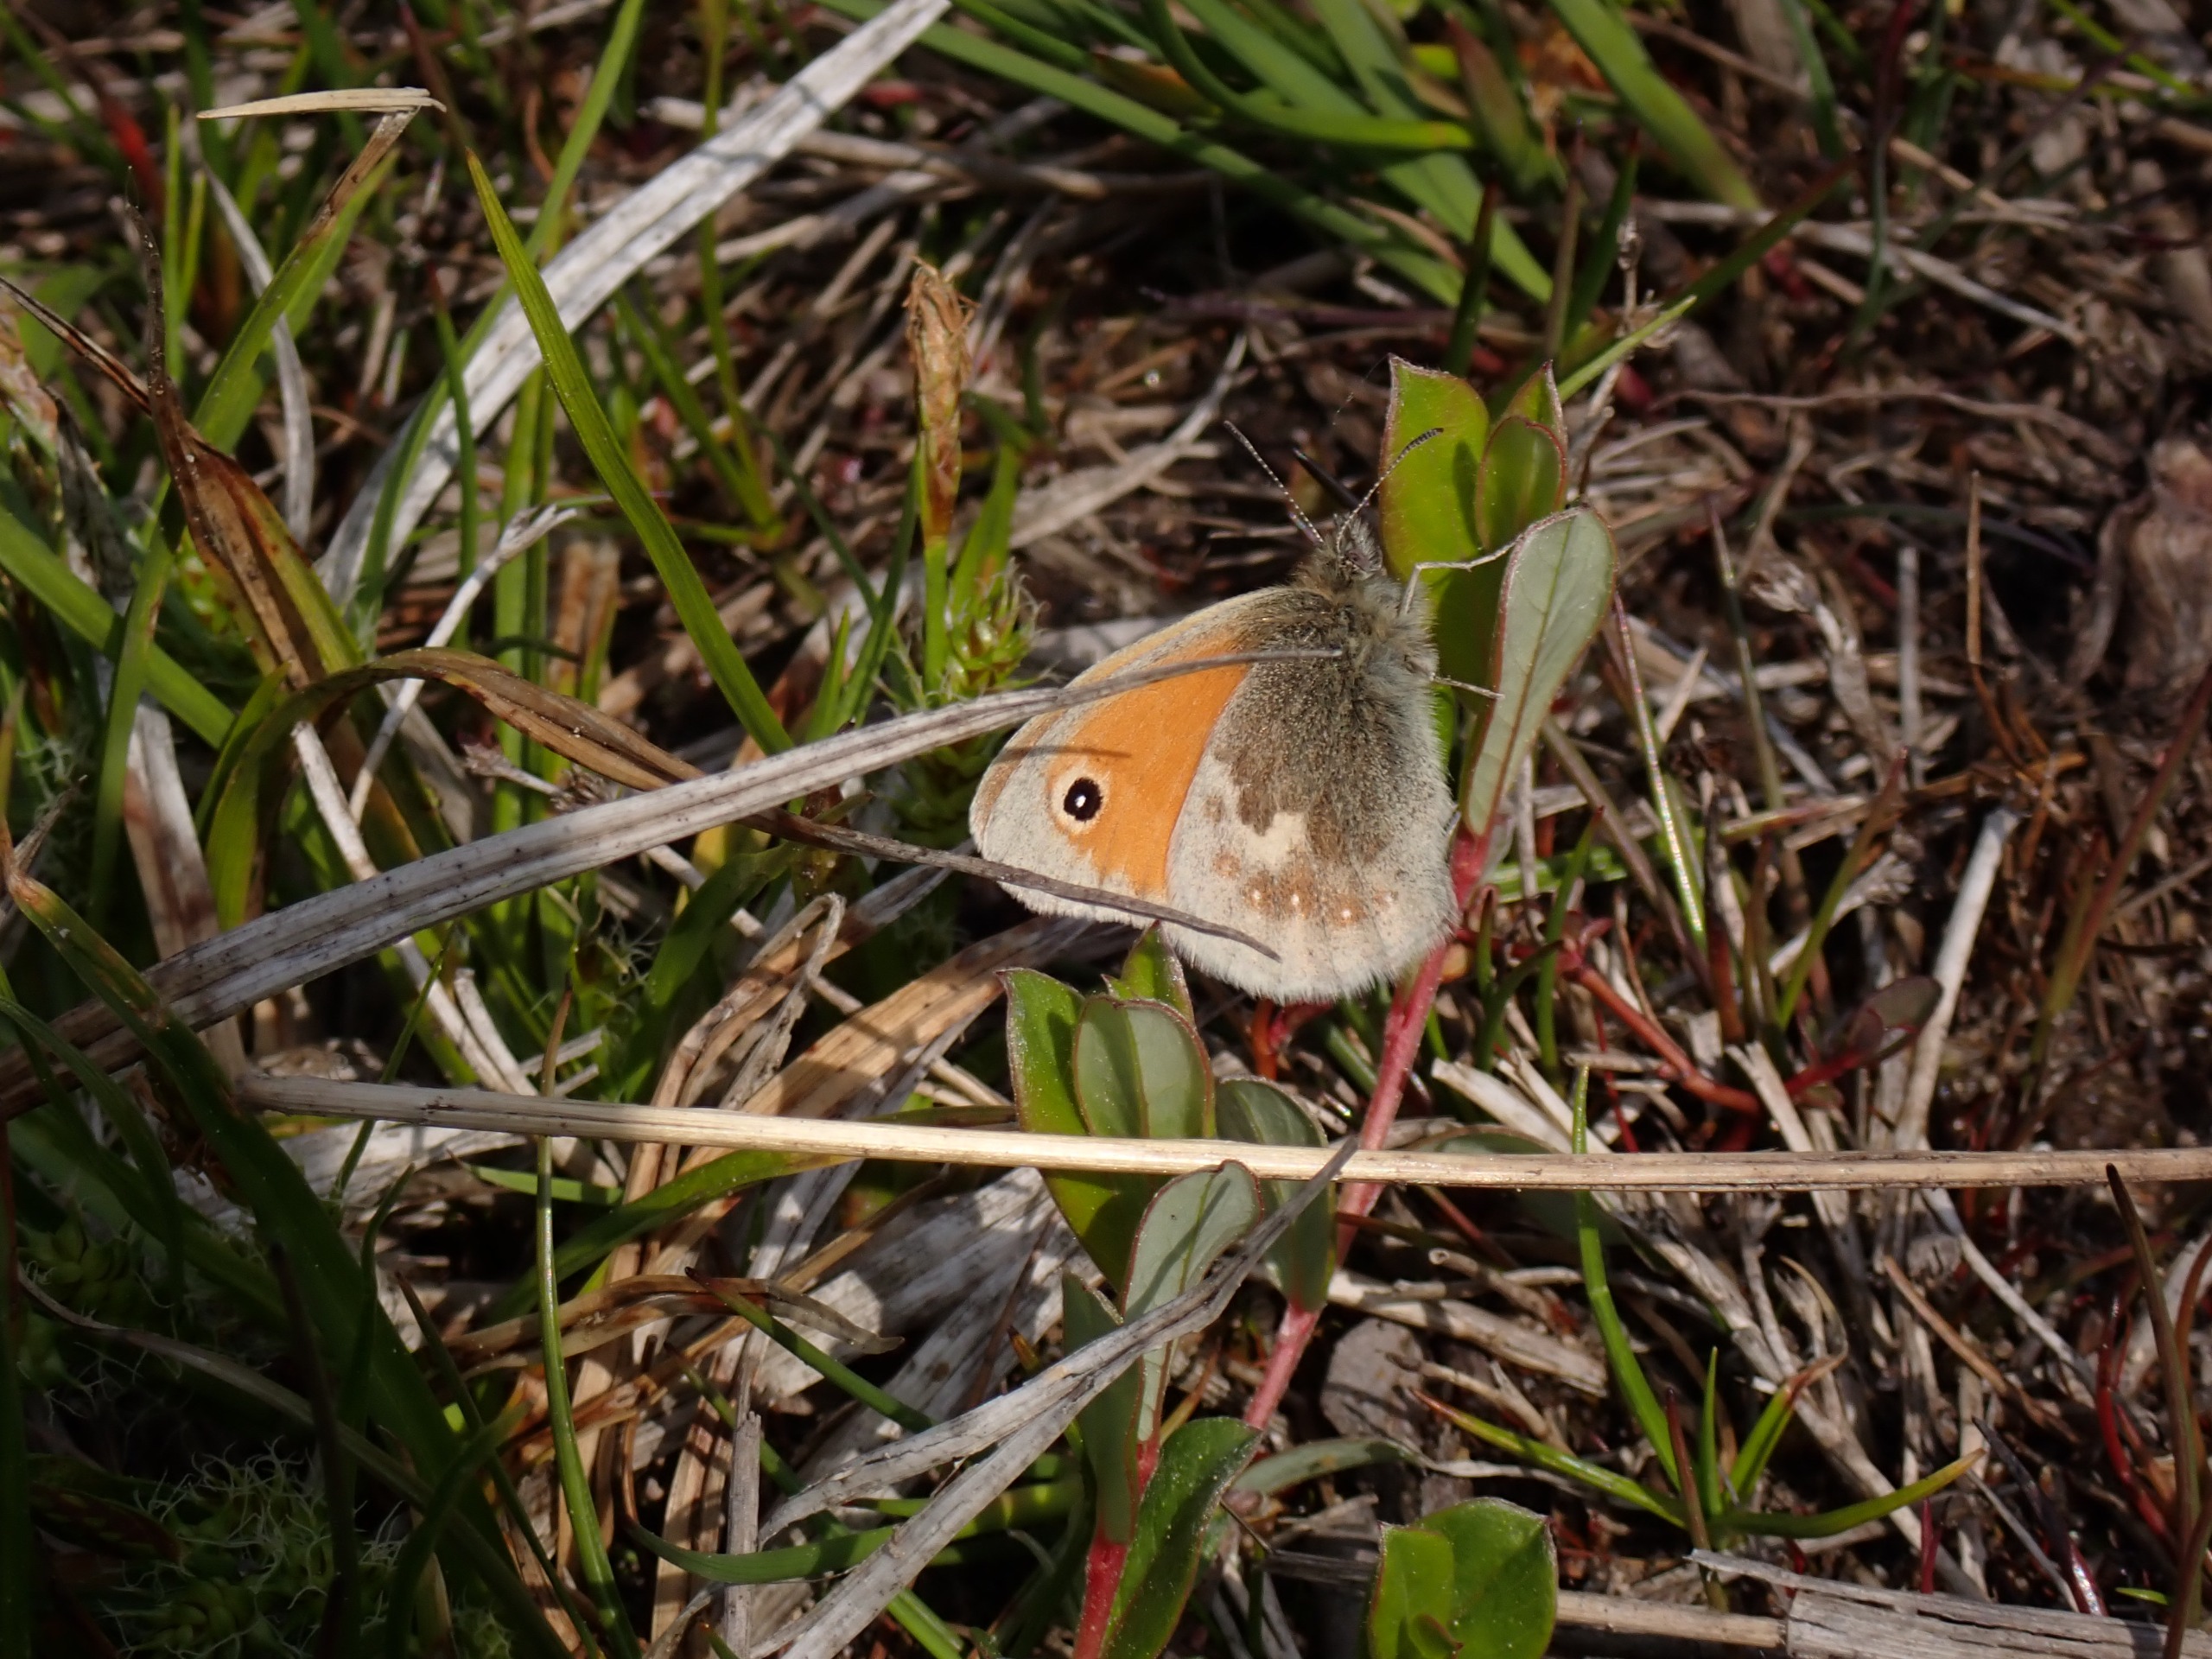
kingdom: Animalia
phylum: Arthropoda
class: Insecta
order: Lepidoptera
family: Nymphalidae
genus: Coenonympha
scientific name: Coenonympha pamphilus
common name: Okkergul randøje
